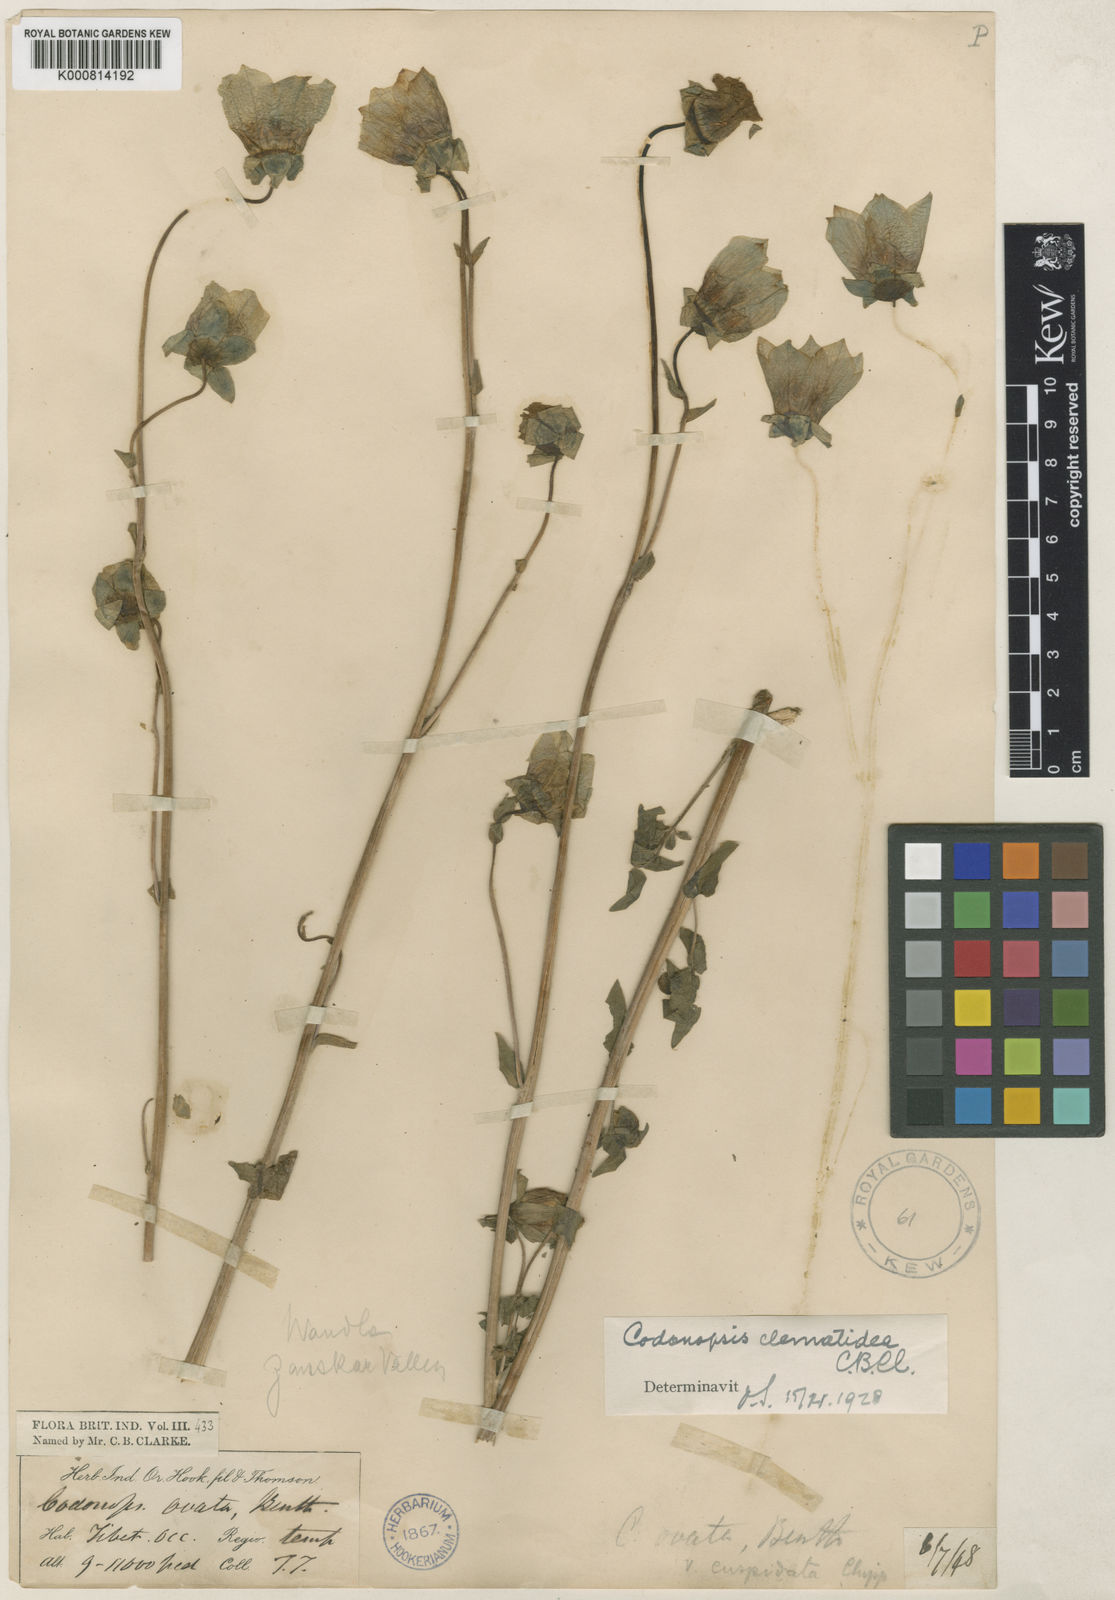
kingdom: Plantae
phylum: Tracheophyta
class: Magnoliopsida
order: Asterales
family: Campanulaceae
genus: Codonopsis
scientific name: Codonopsis clematidea
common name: Bonnet-bellflower
